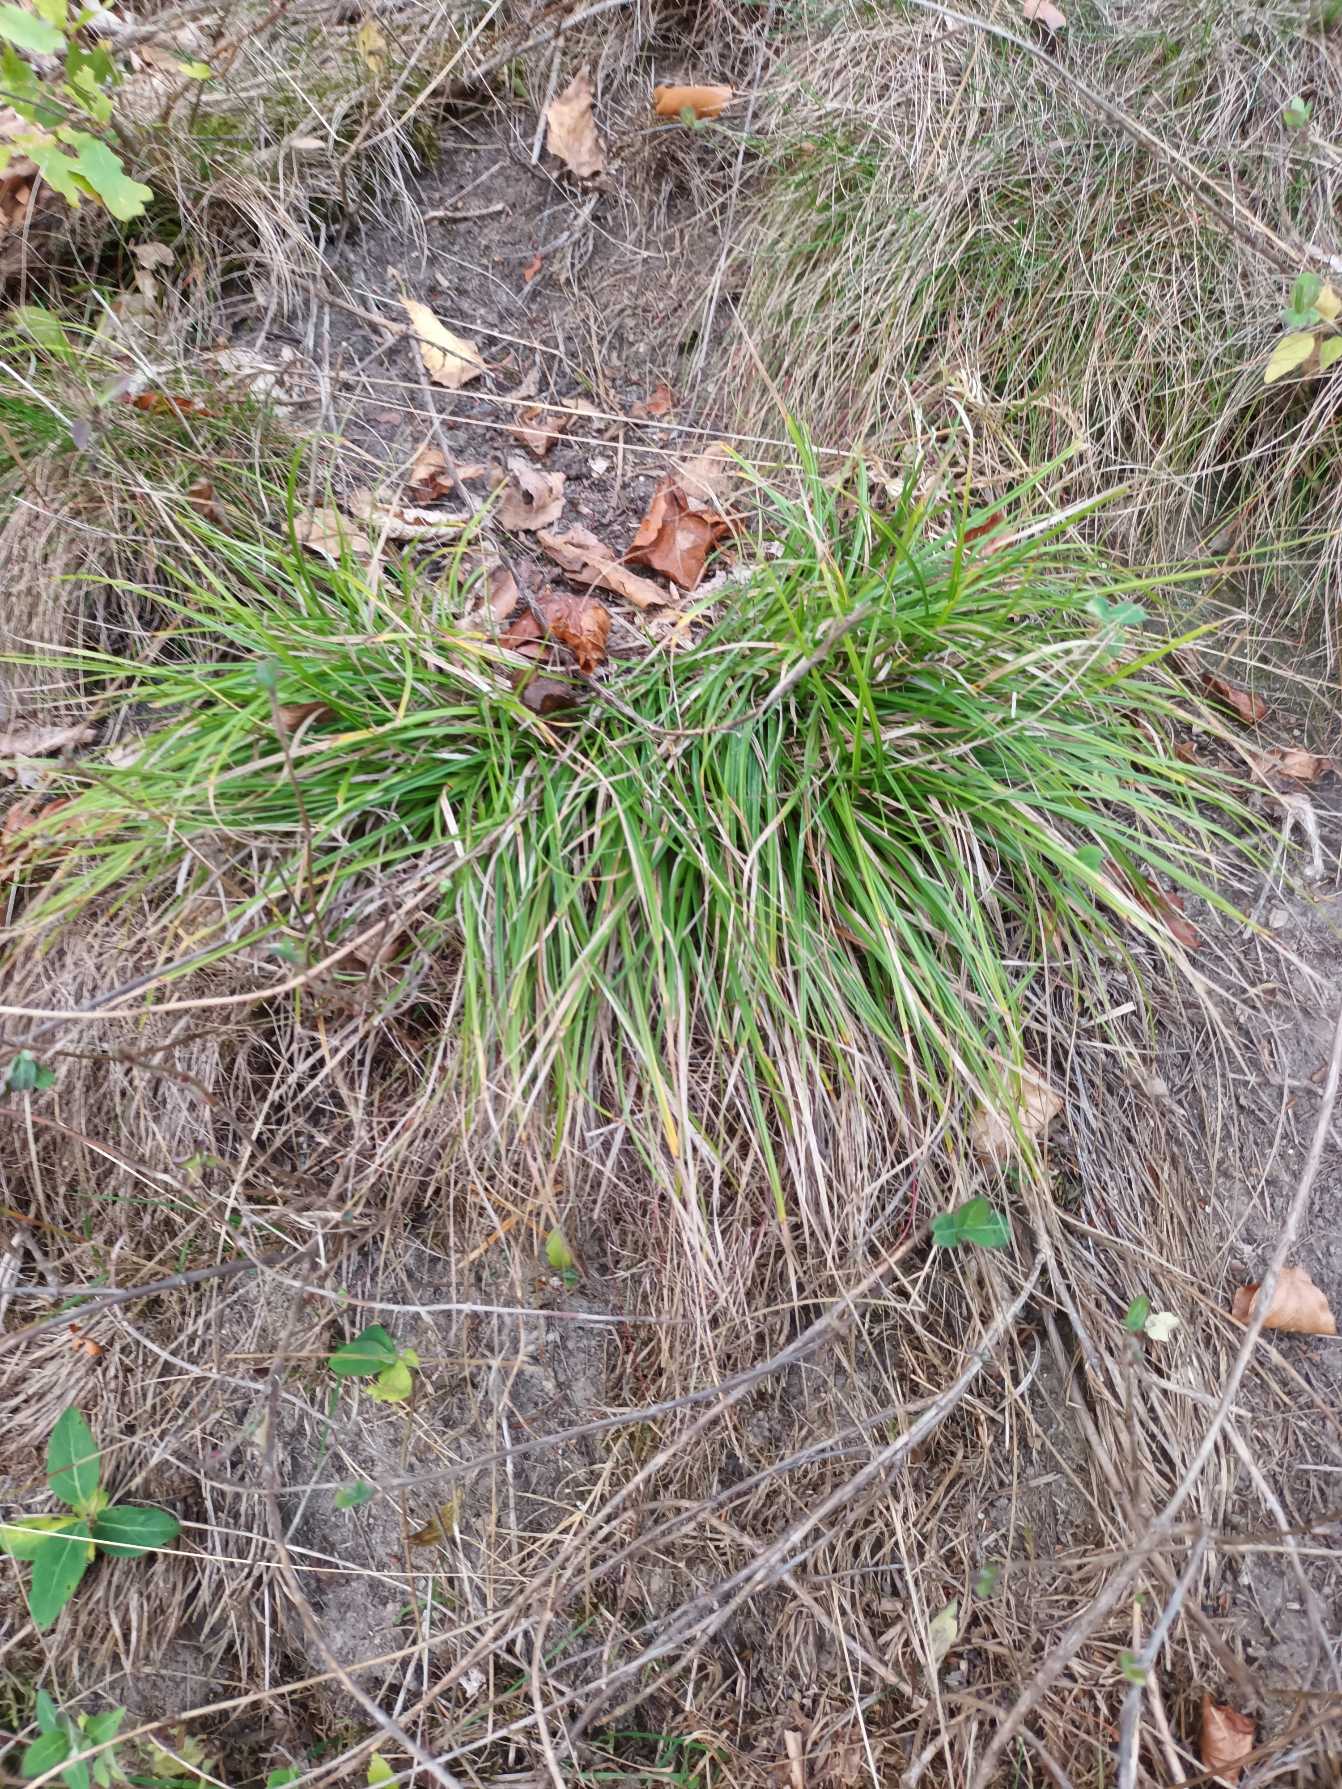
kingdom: Plantae
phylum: Tracheophyta
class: Liliopsida
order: Poales
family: Cyperaceae
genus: Carex
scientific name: Carex pilulifera
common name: Pille-star
